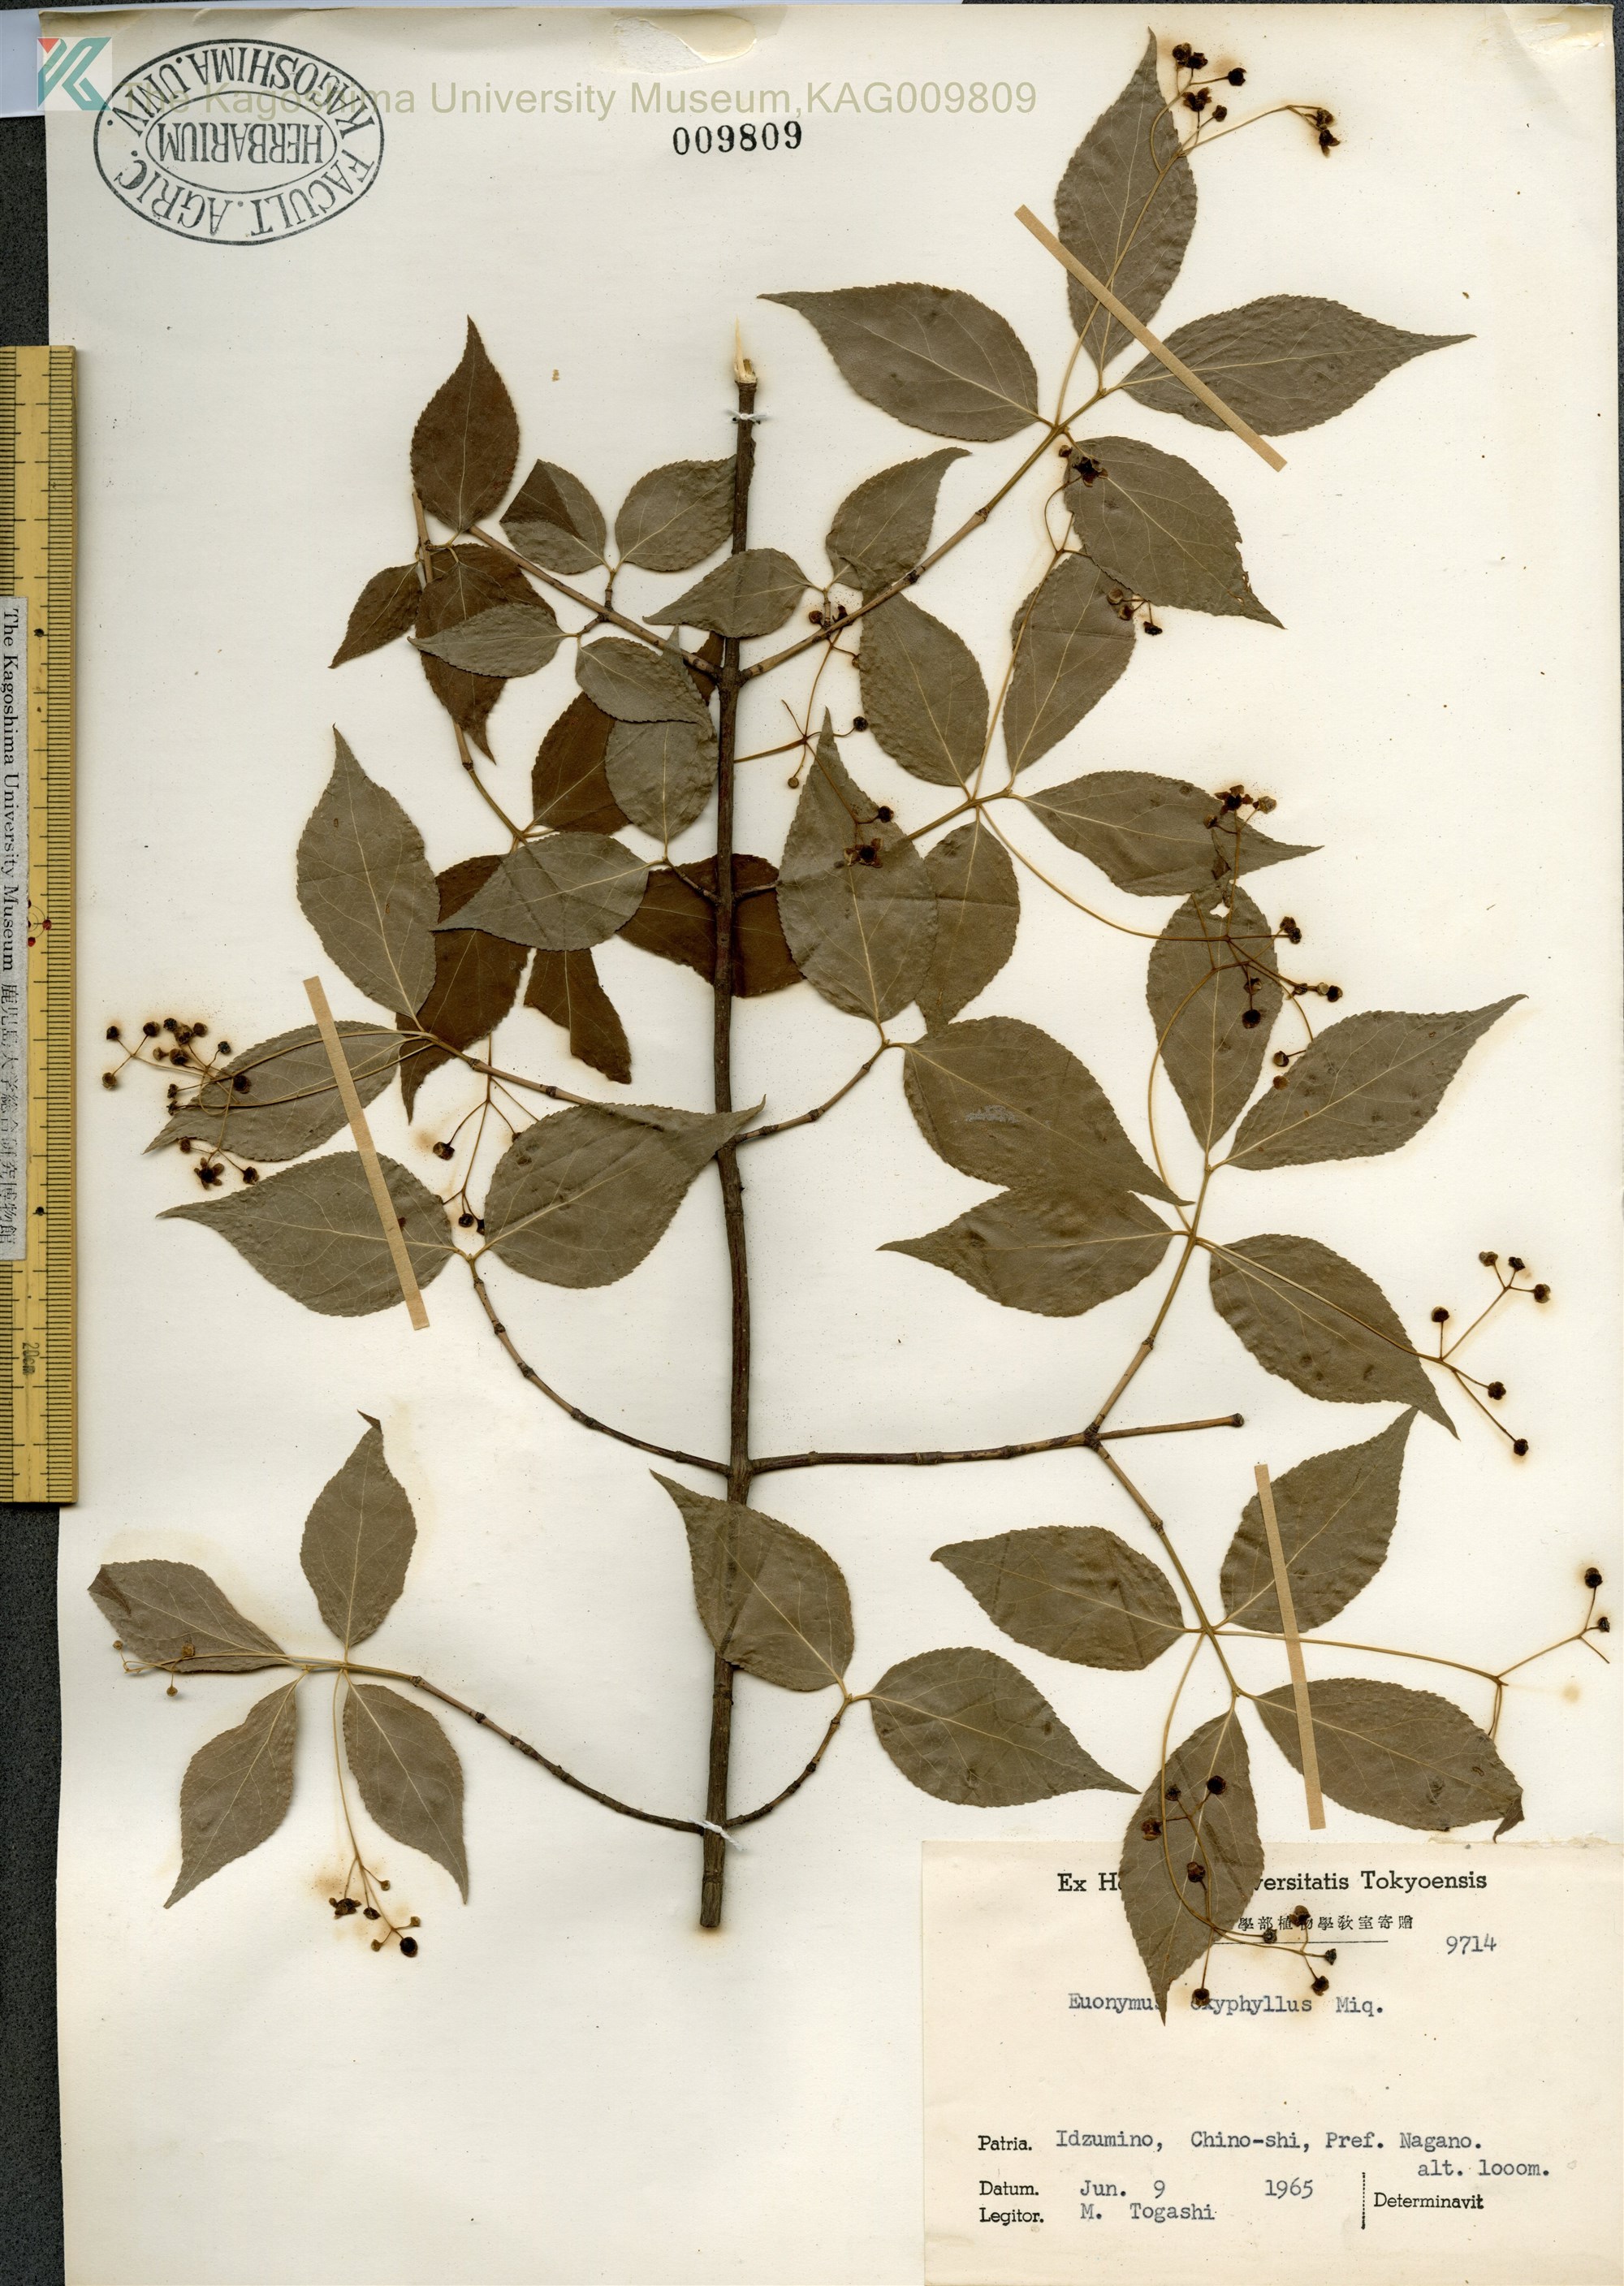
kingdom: Plantae
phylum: Tracheophyta
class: Magnoliopsida
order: Celastrales
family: Celastraceae
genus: Euonymus
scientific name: Euonymus oxyphyllus
